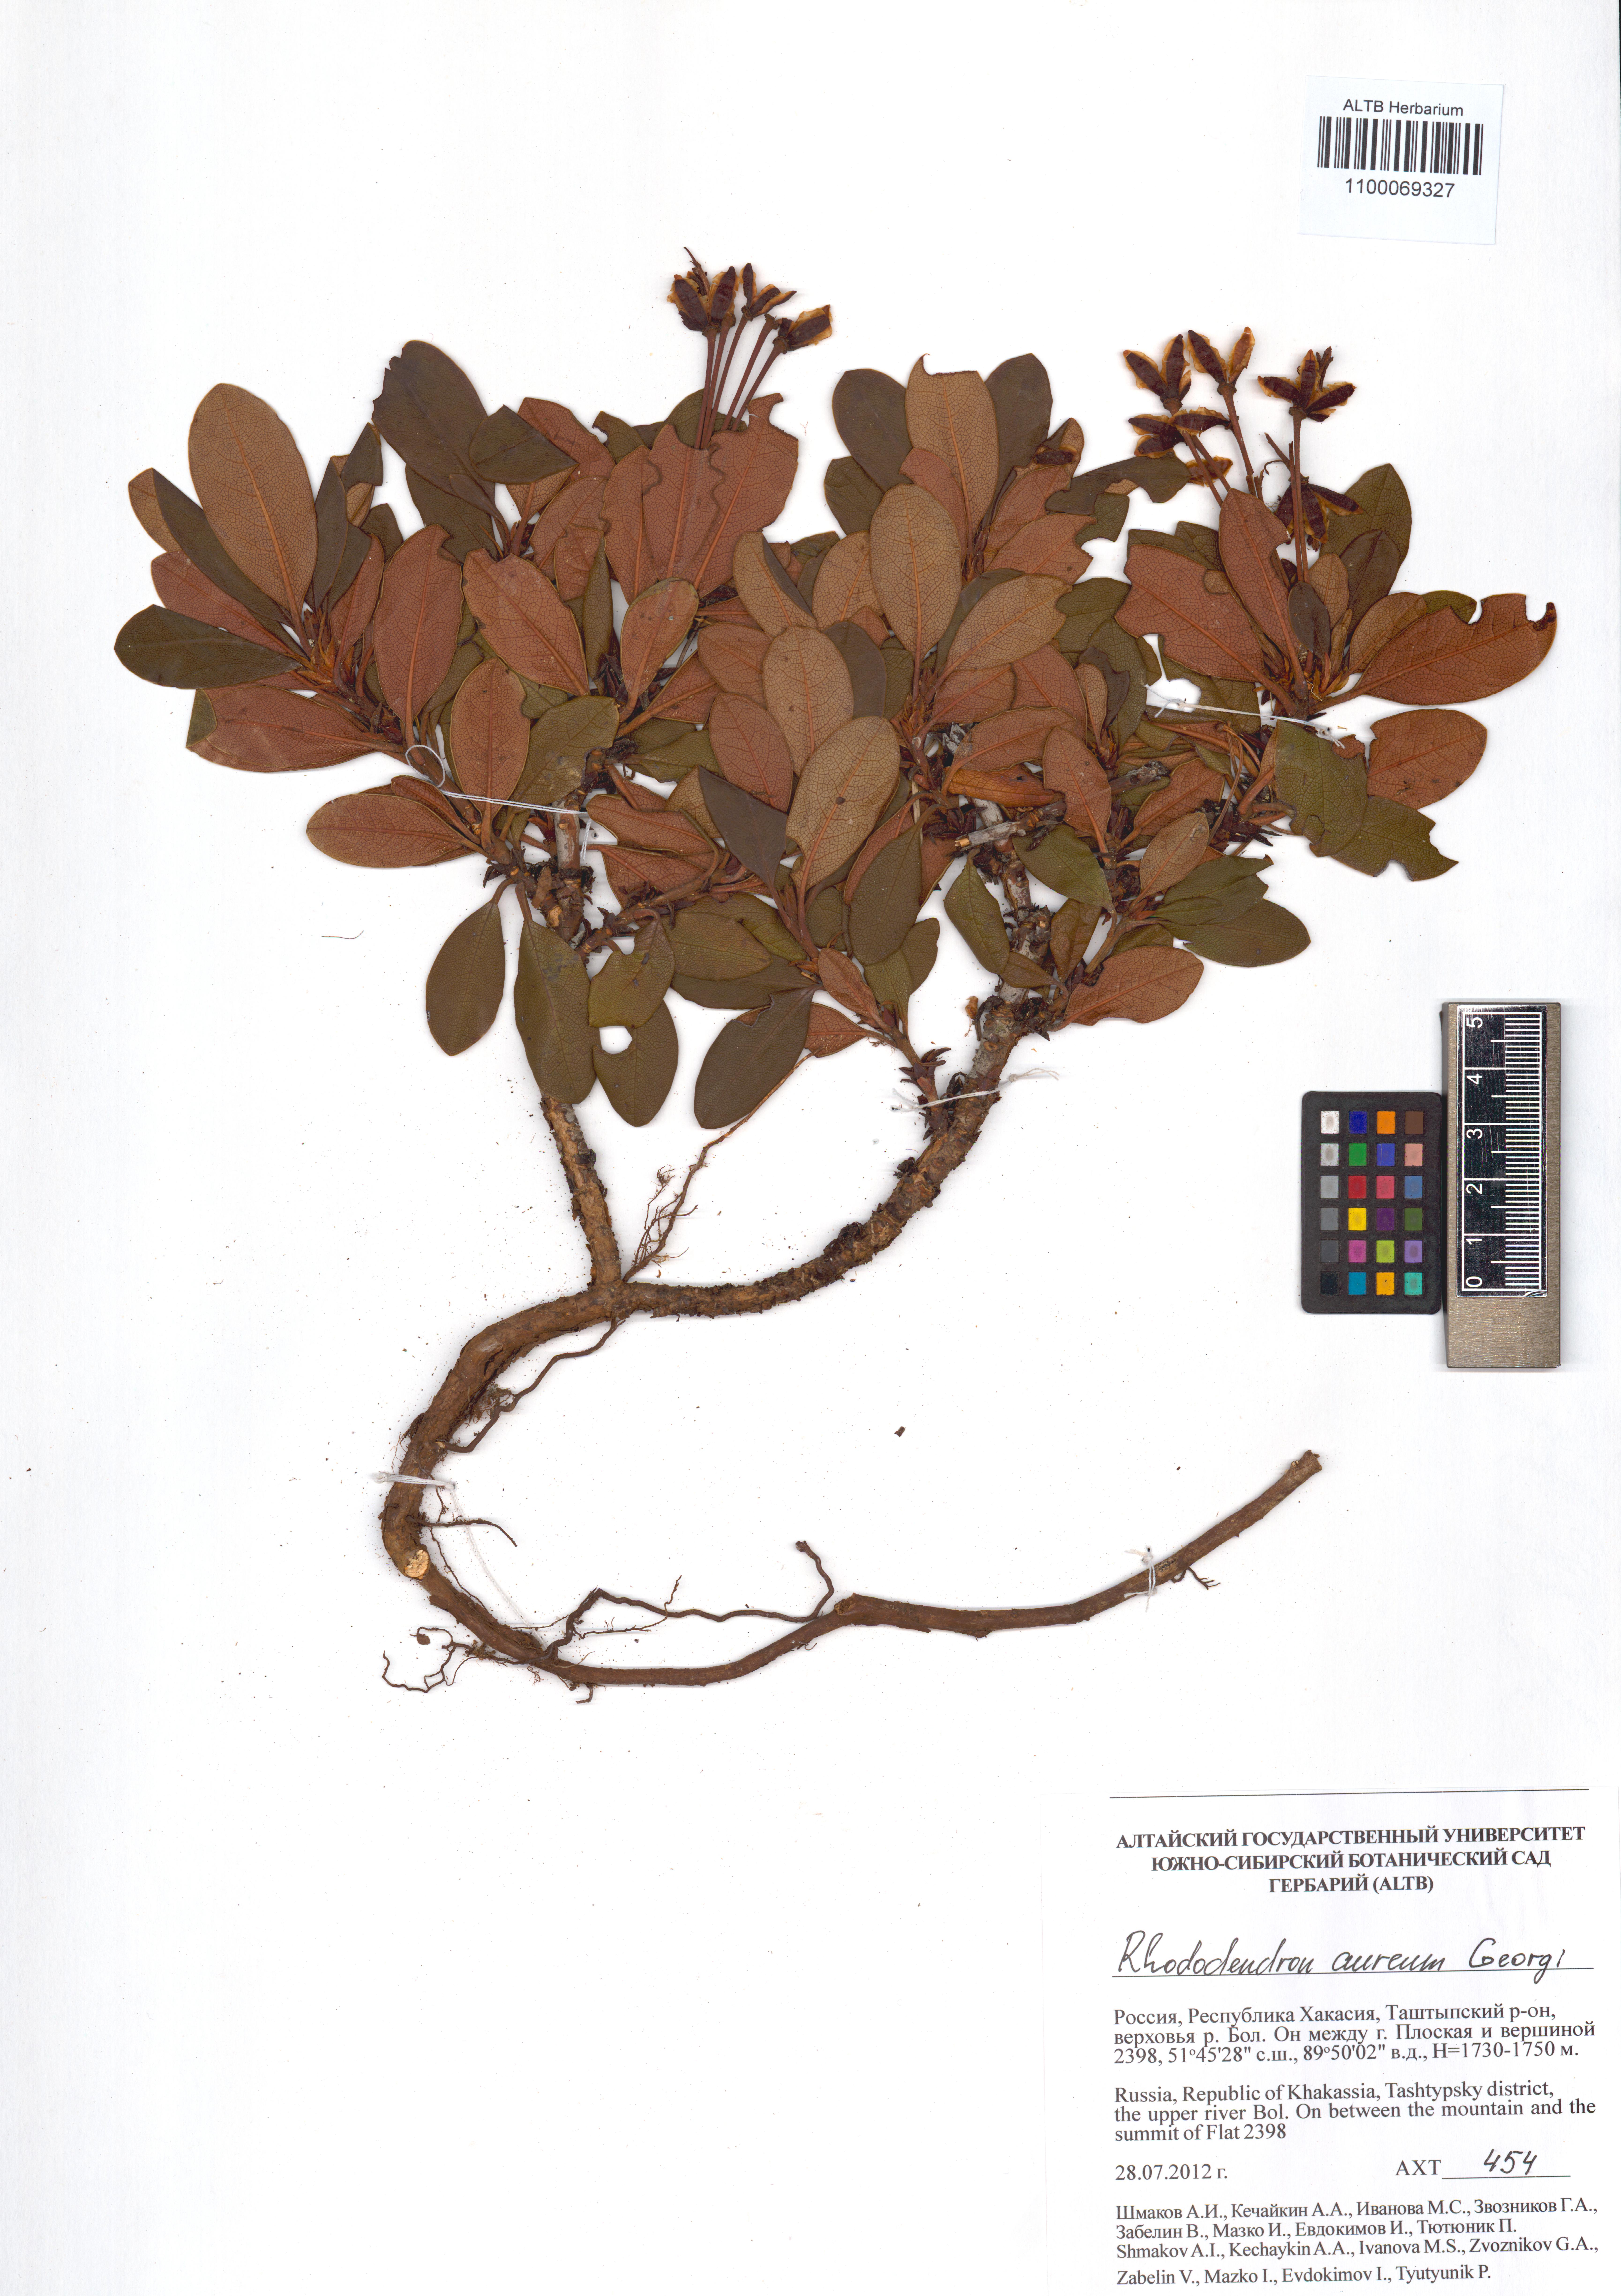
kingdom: Plantae
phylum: Tracheophyta
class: Magnoliopsida
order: Ericales
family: Ericaceae
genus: Rhododendron
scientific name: Rhododendron aureum
